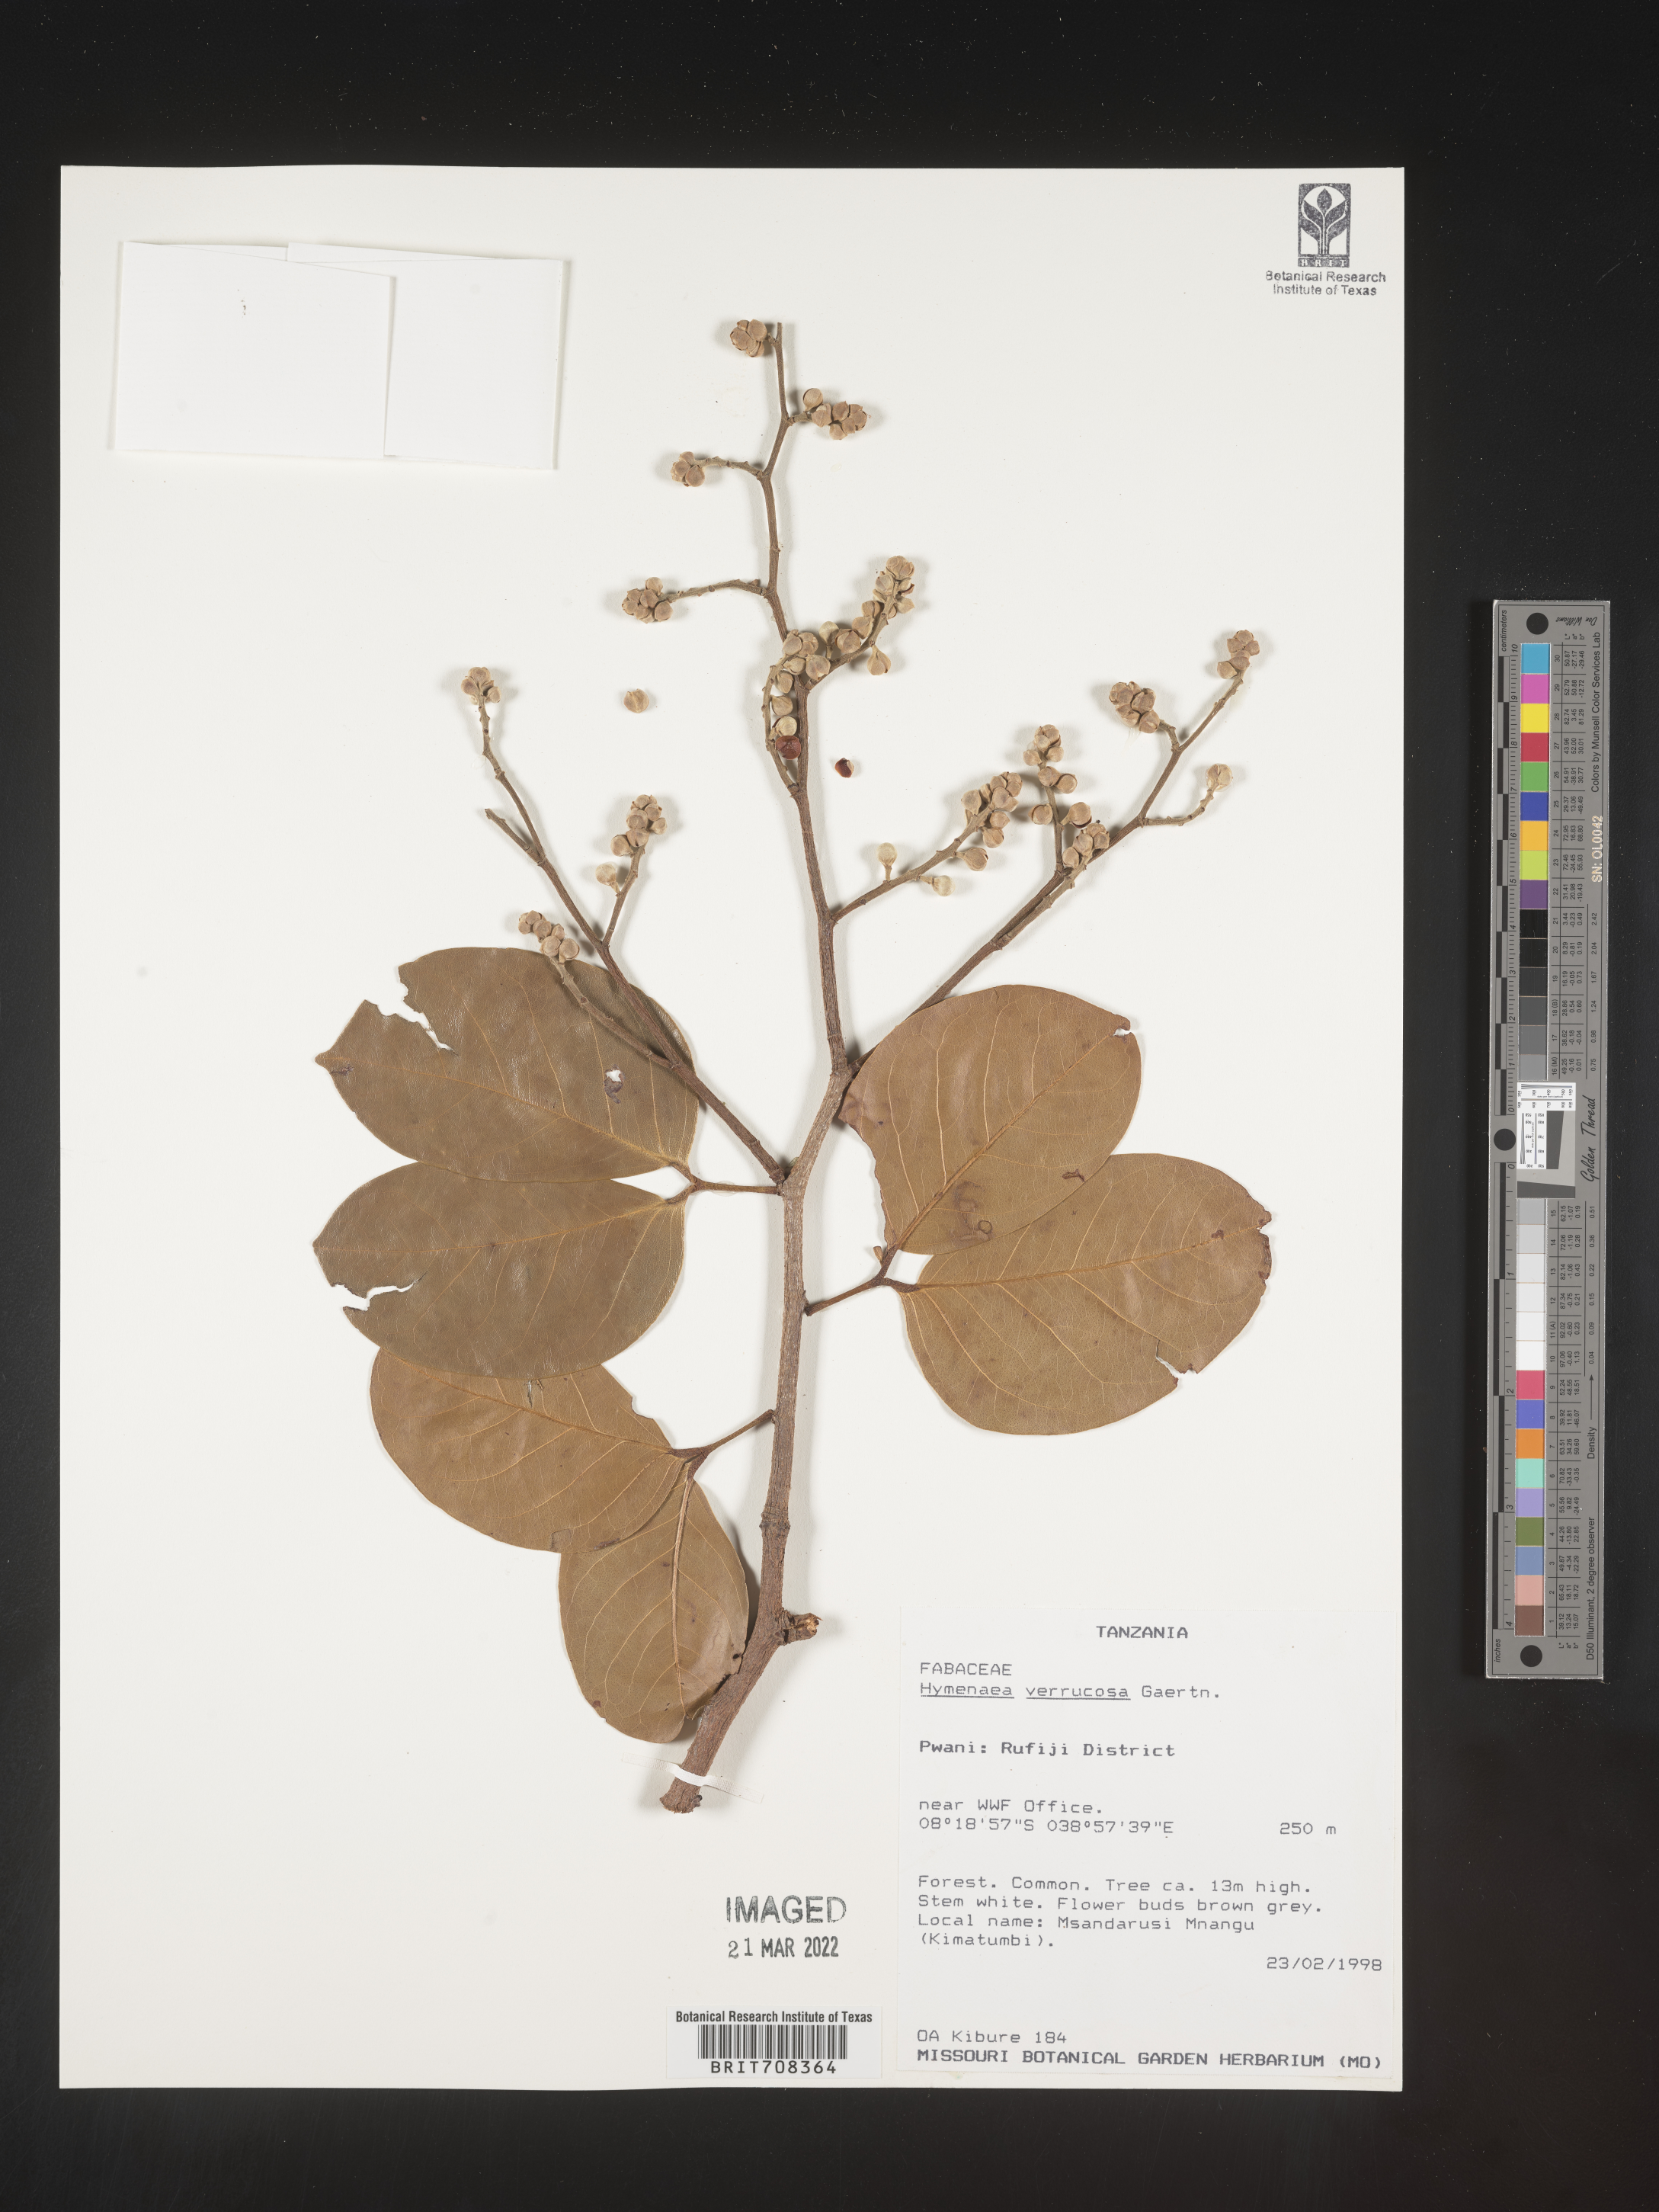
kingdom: Plantae
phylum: Tracheophyta
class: Magnoliopsida
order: Fabales
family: Fabaceae
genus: Hymenaea
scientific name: Hymenaea
